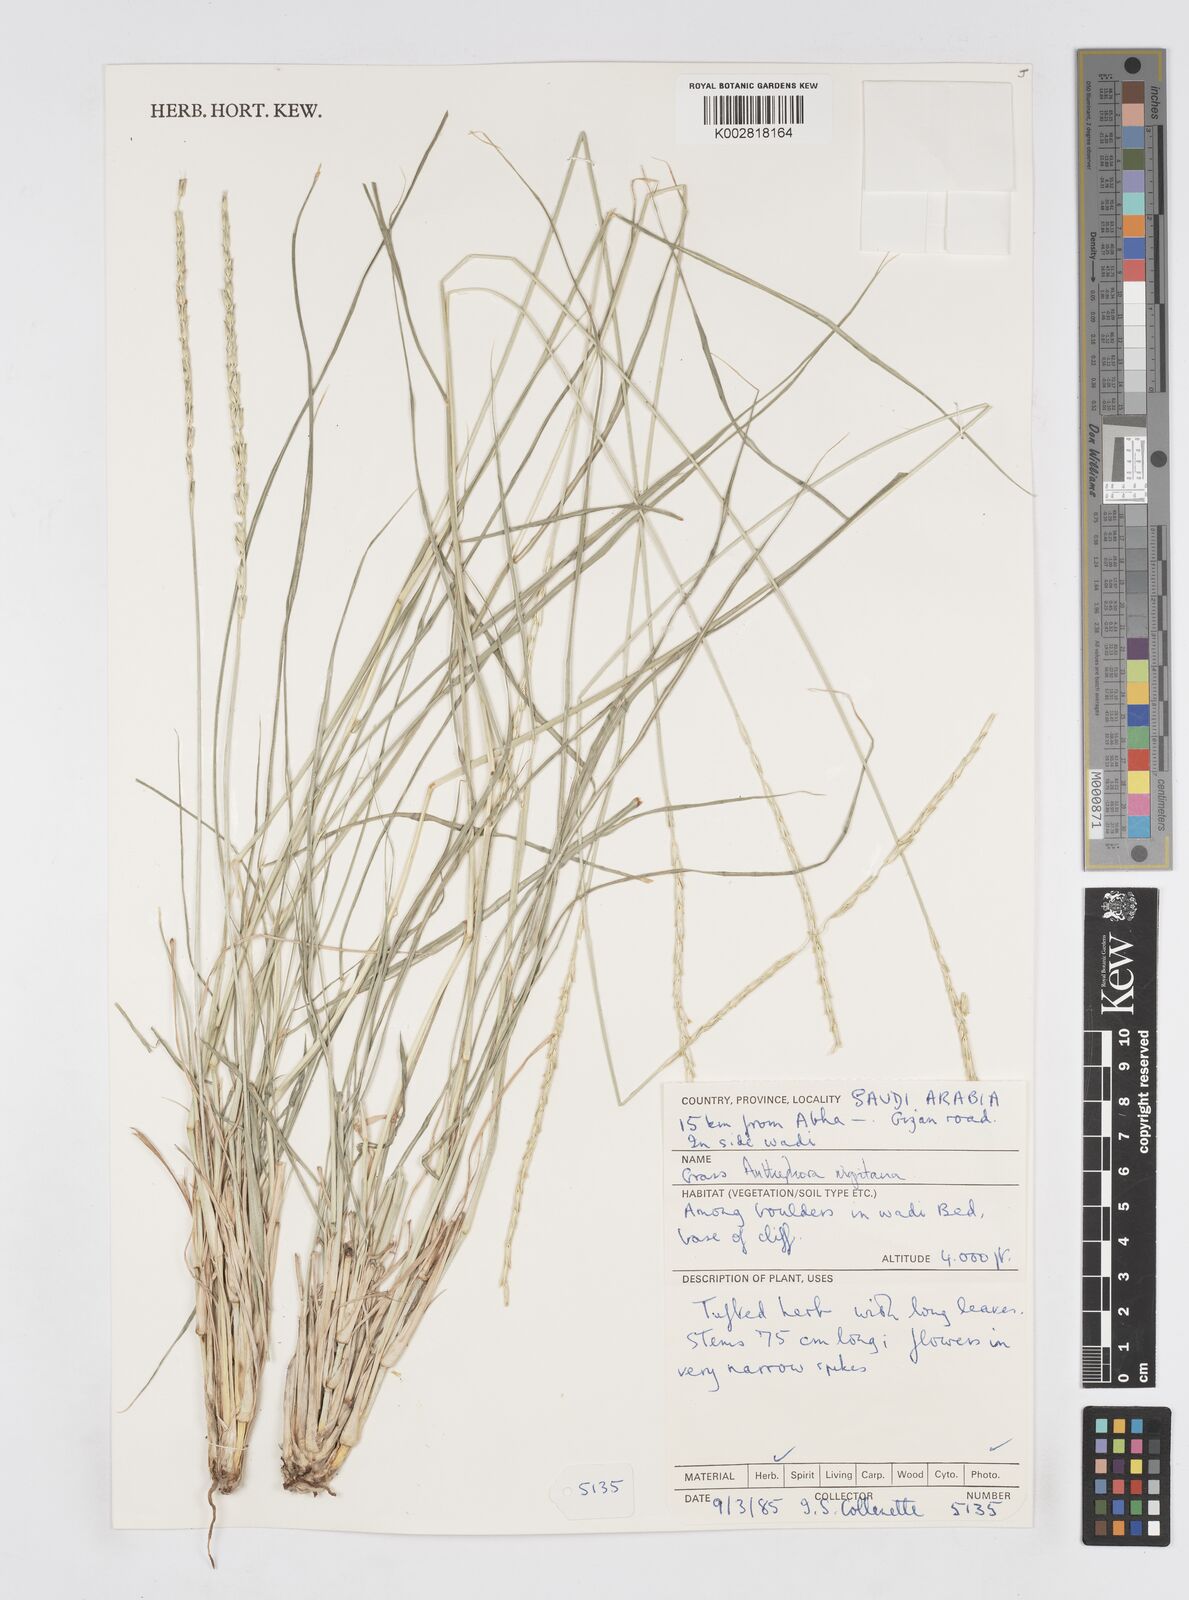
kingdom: Plantae
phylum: Tracheophyta
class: Liliopsida
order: Poales
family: Poaceae
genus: Anthephora
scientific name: Anthephora nigritana
